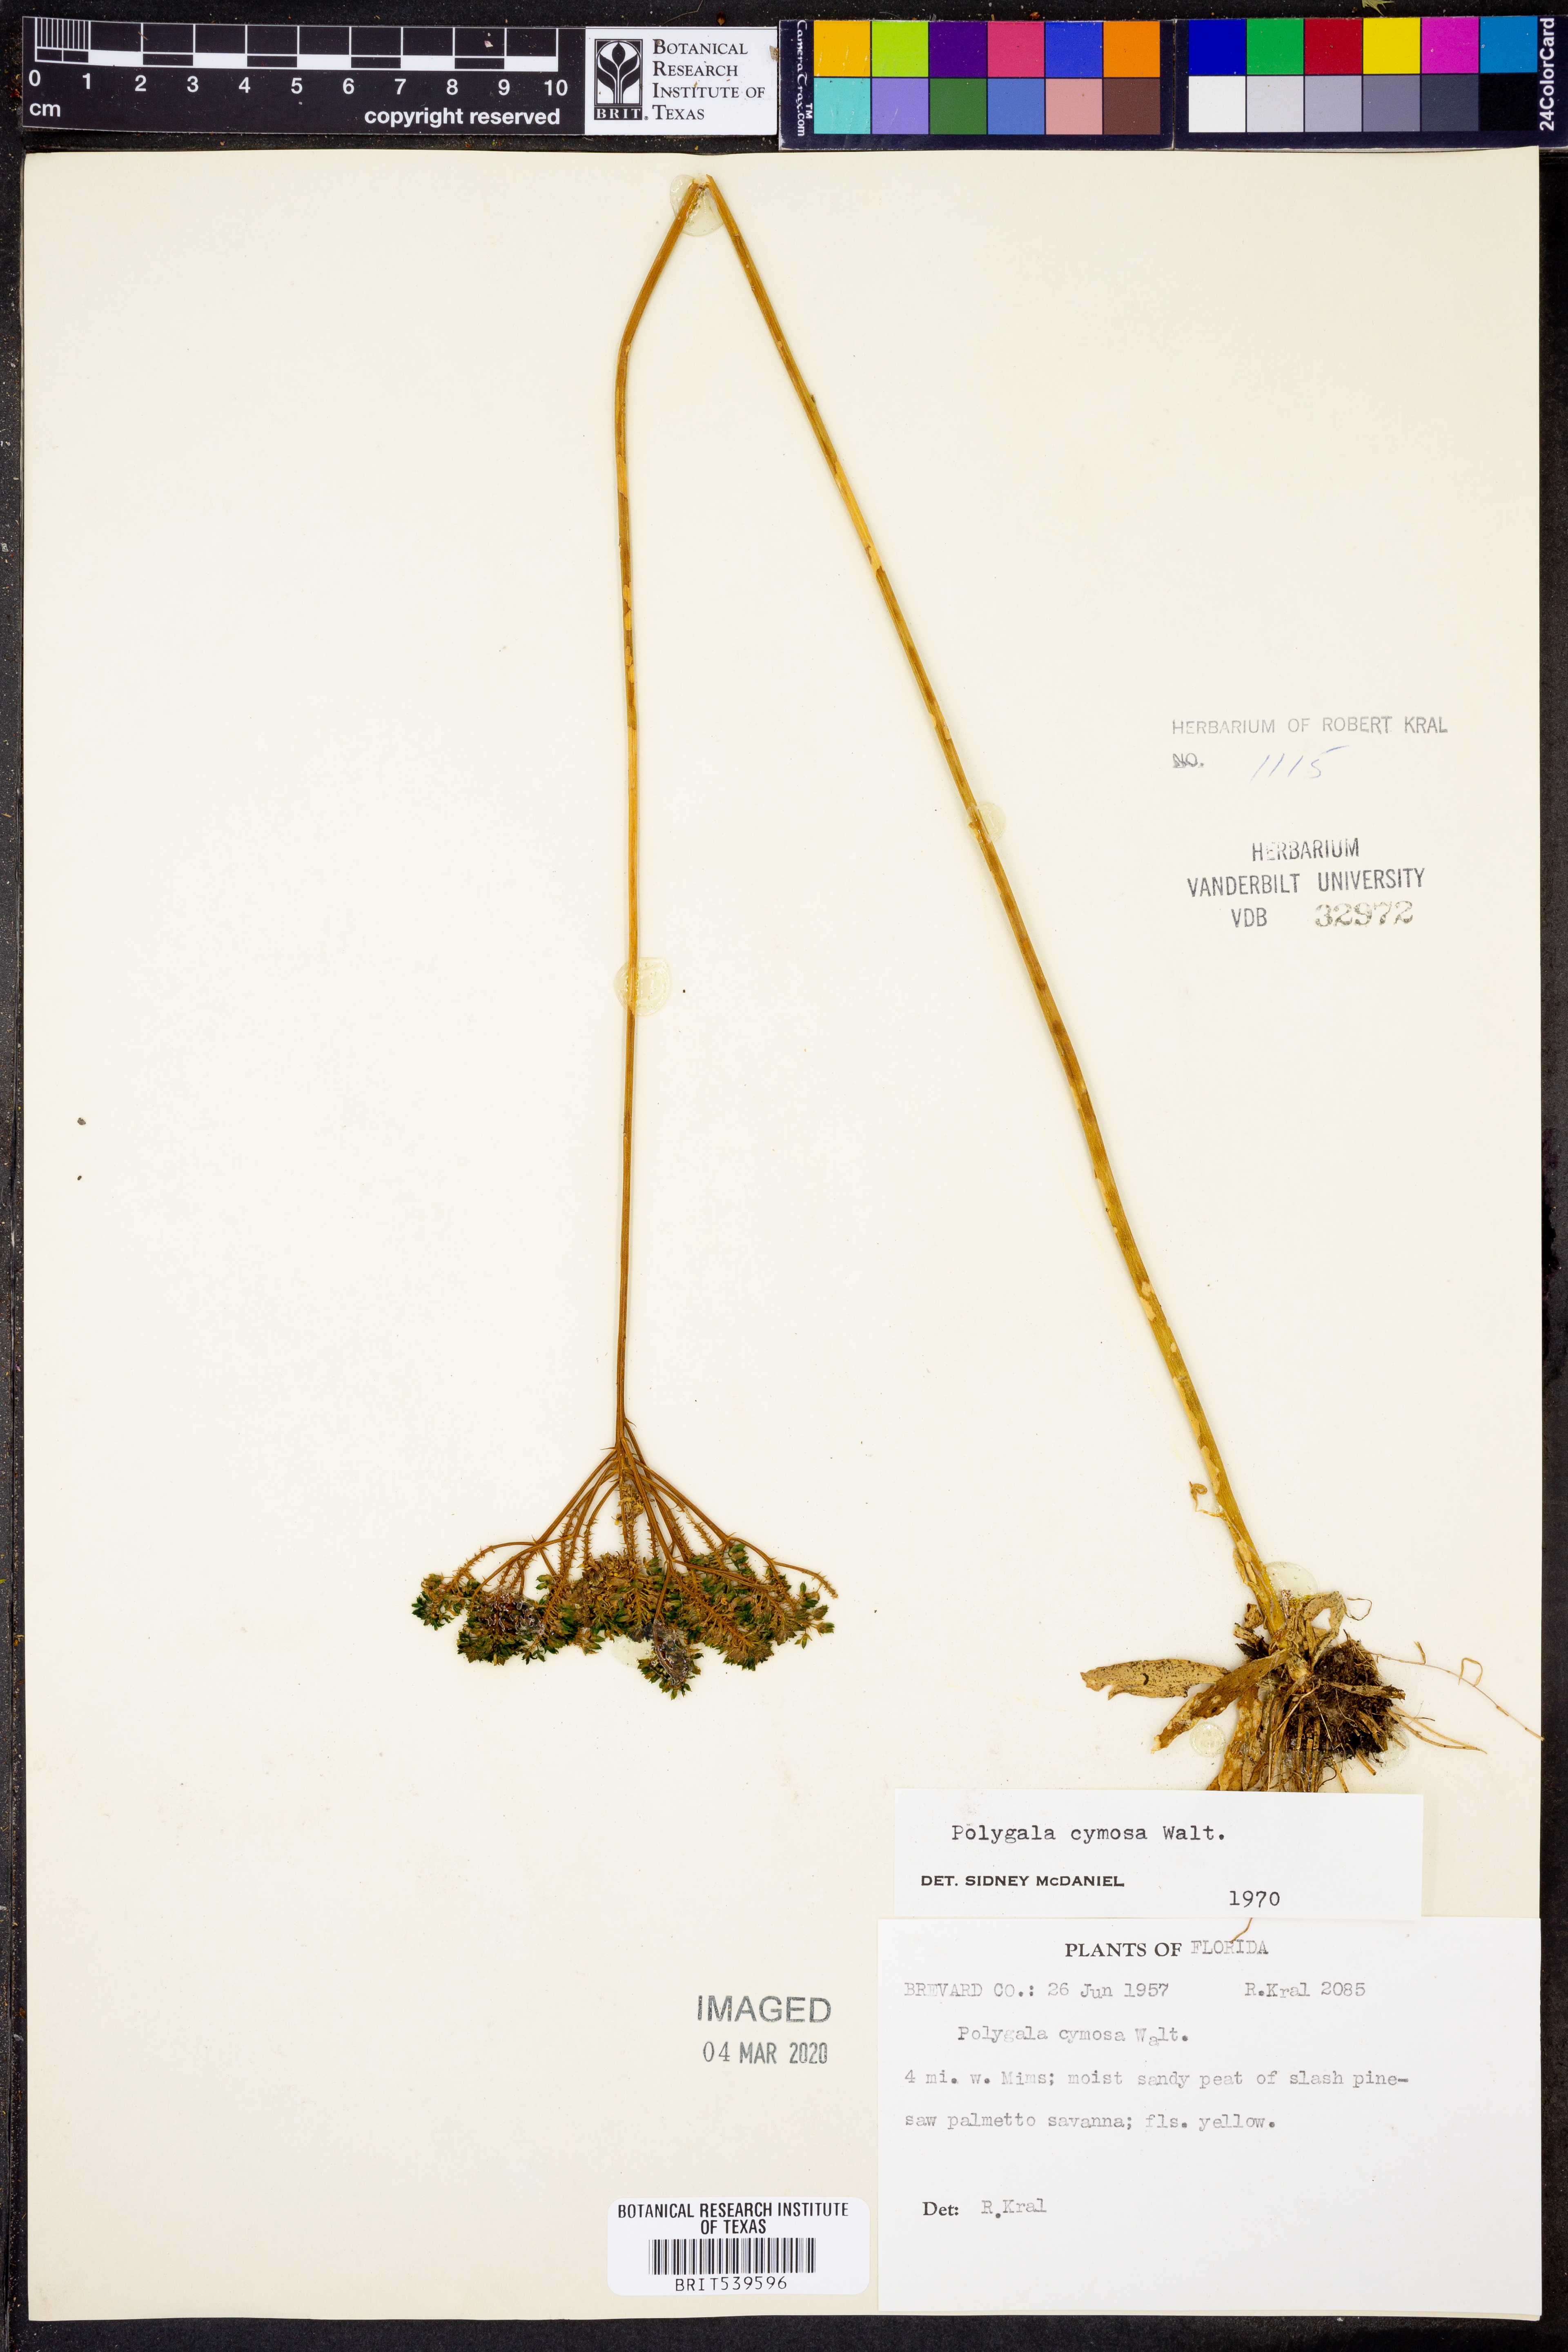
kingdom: Plantae
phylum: Tracheophyta
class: Magnoliopsida
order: Fabales
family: Polygalaceae
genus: Polygala
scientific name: Polygala cymosa
